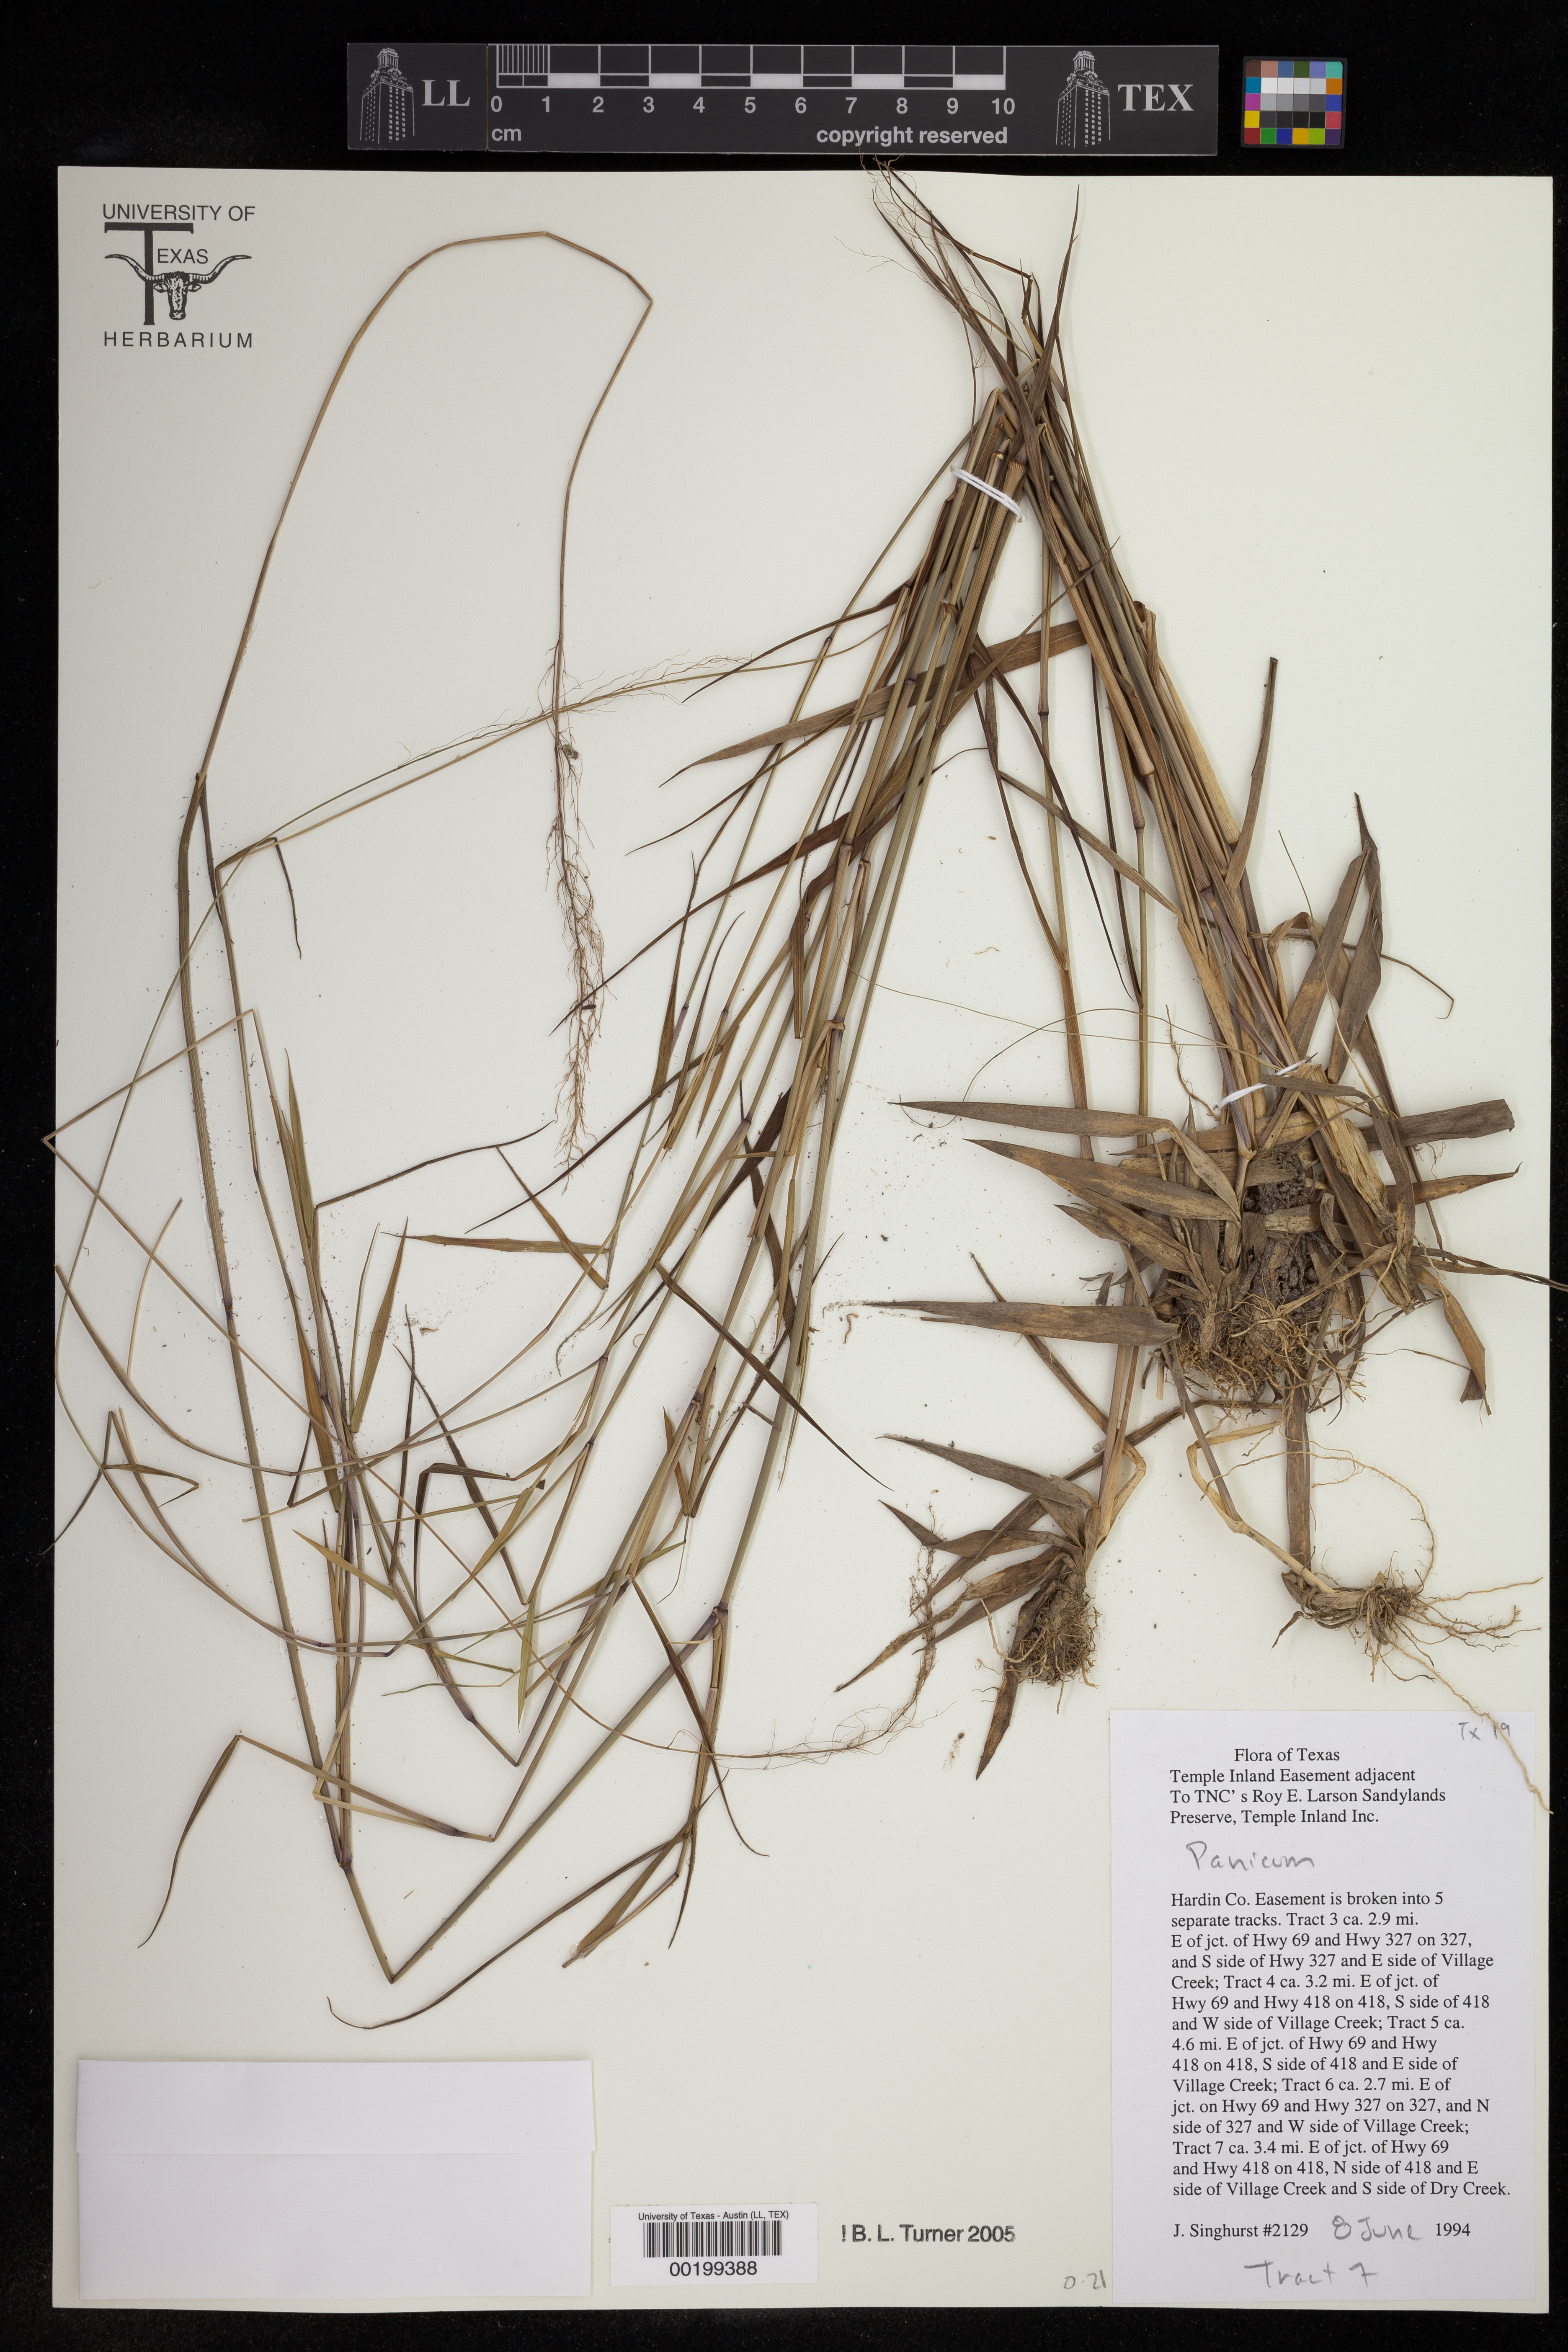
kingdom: Plantae
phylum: Tracheophyta
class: Liliopsida
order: Poales
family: Poaceae
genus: Panicum
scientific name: Panicum
